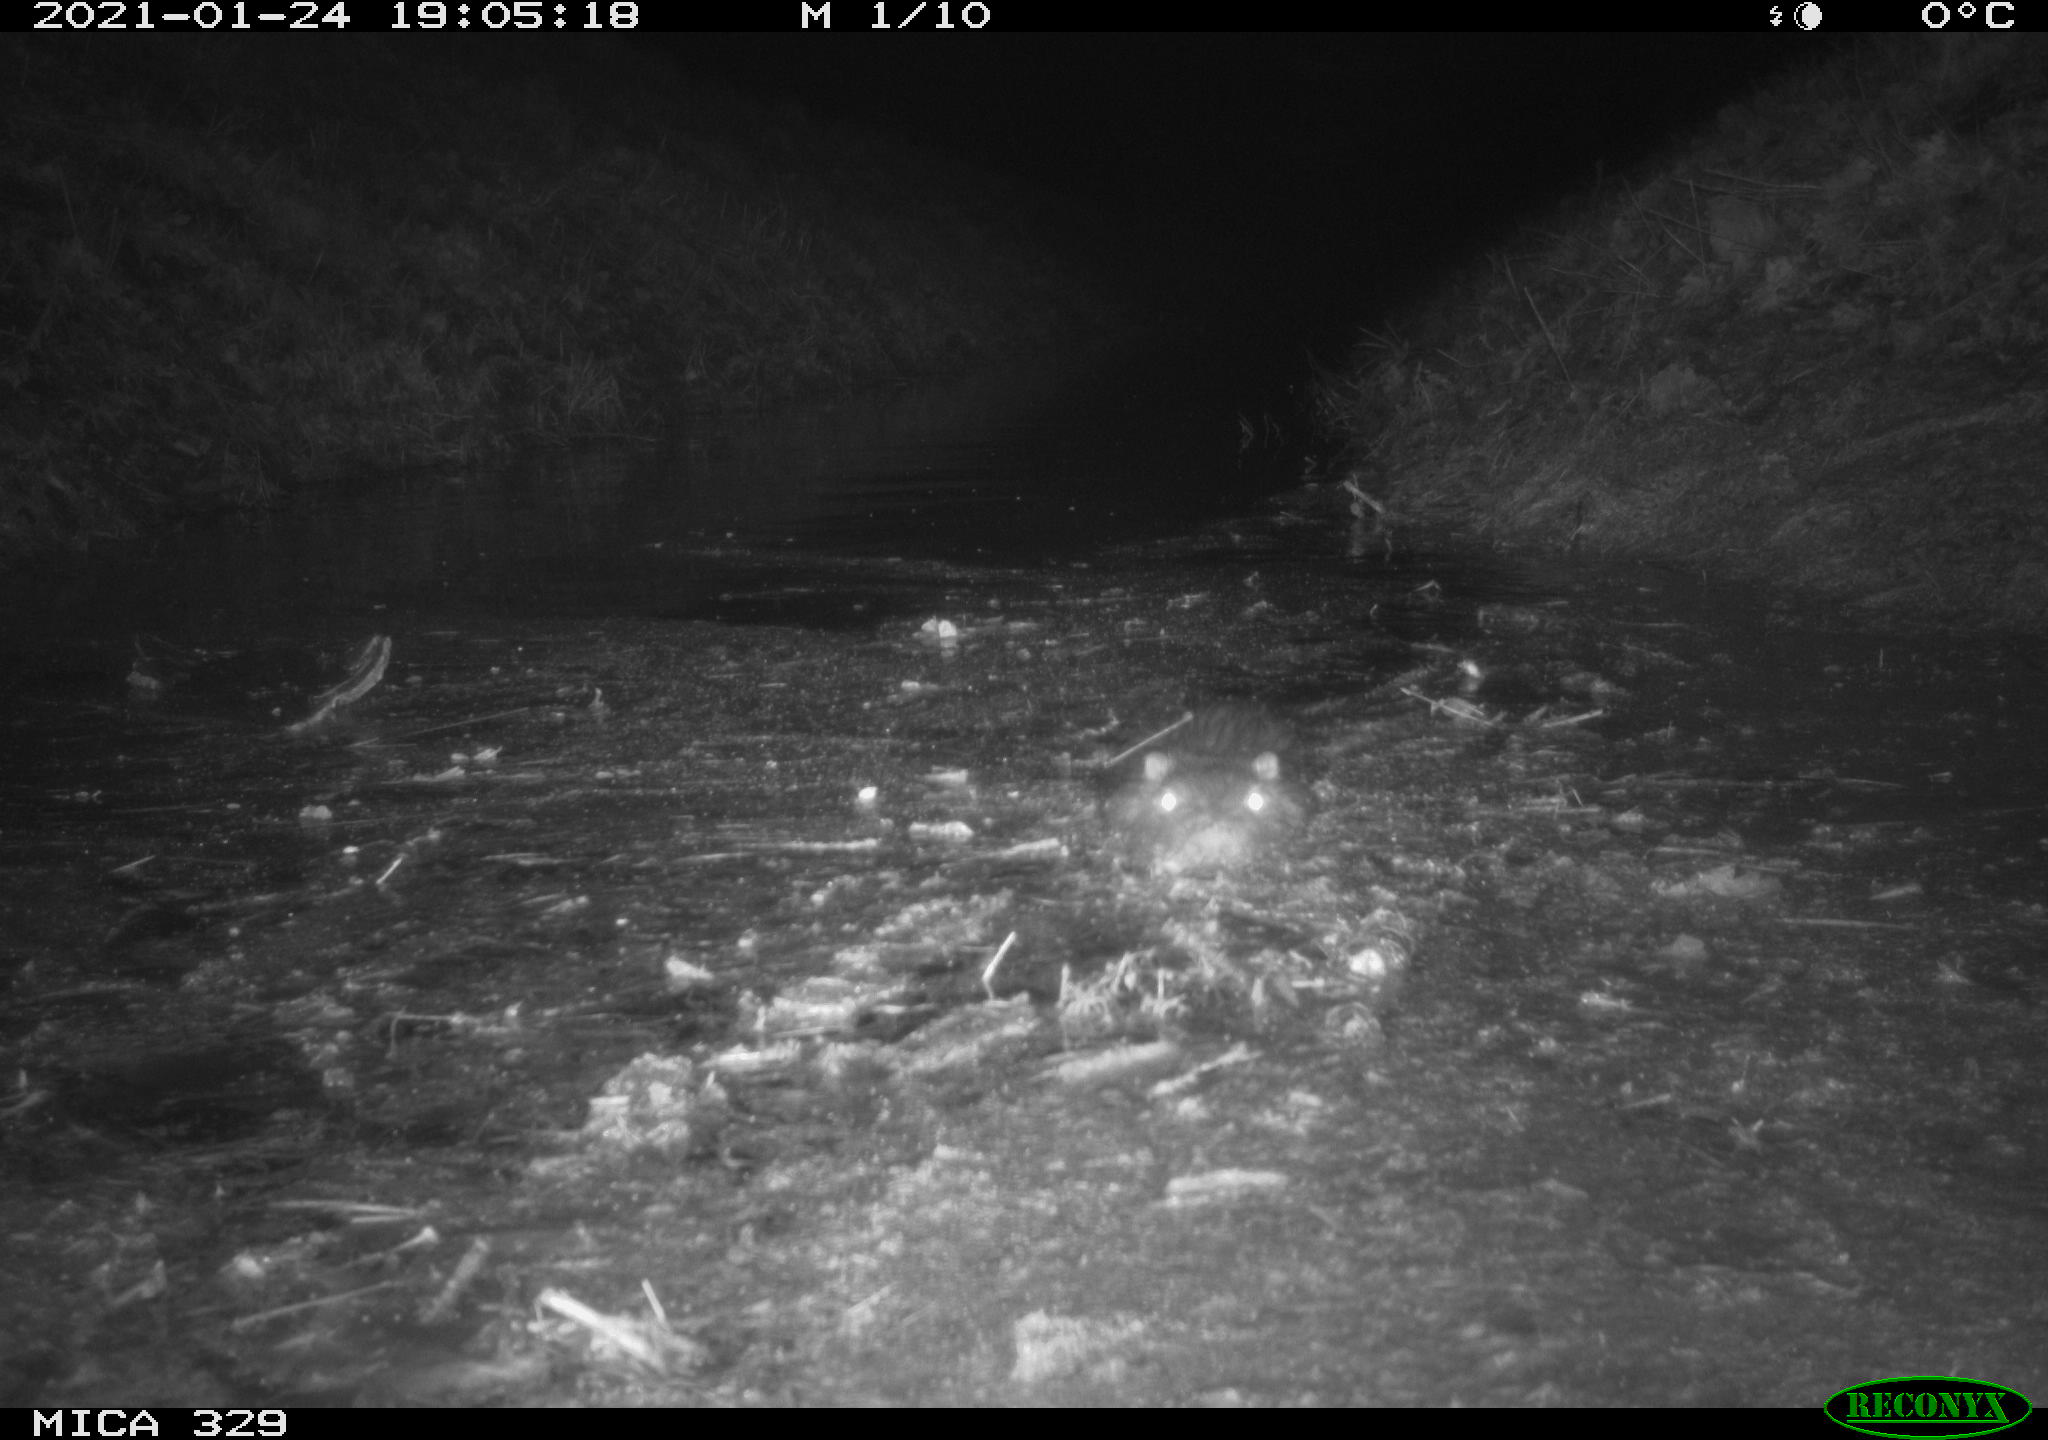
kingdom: Animalia
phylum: Chordata
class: Mammalia
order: Rodentia
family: Myocastoridae
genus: Myocastor
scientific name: Myocastor coypus
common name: Coypu
